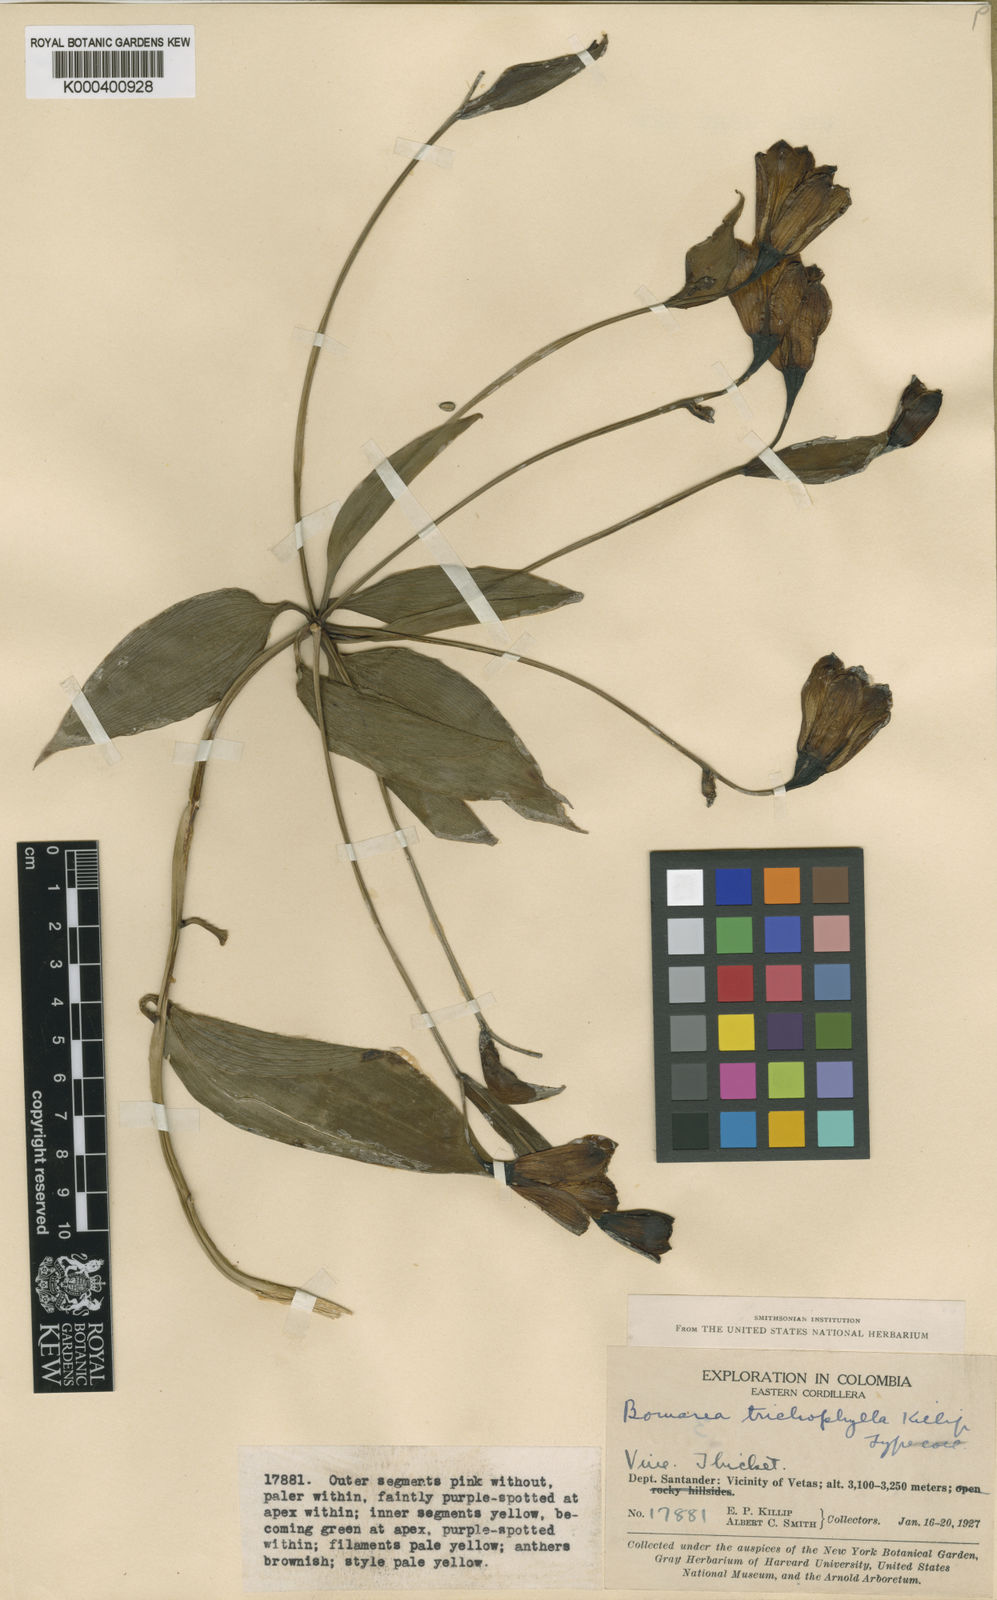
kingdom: Plantae
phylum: Tracheophyta
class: Liliopsida
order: Liliales
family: Alstroemeriaceae
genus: Bomarea
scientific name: Bomarea trichophylla
